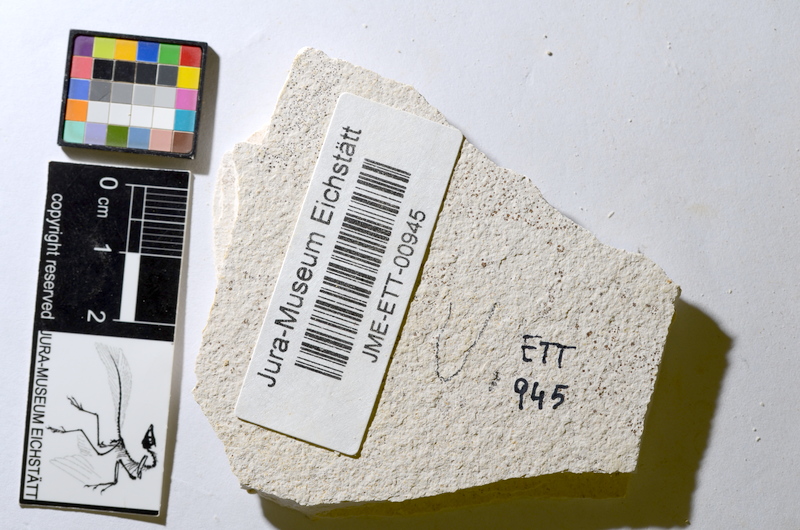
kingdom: Animalia
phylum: Chordata
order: Salmoniformes
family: Orthogonikleithridae
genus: Orthogonikleithrus
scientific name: Orthogonikleithrus hoelli
